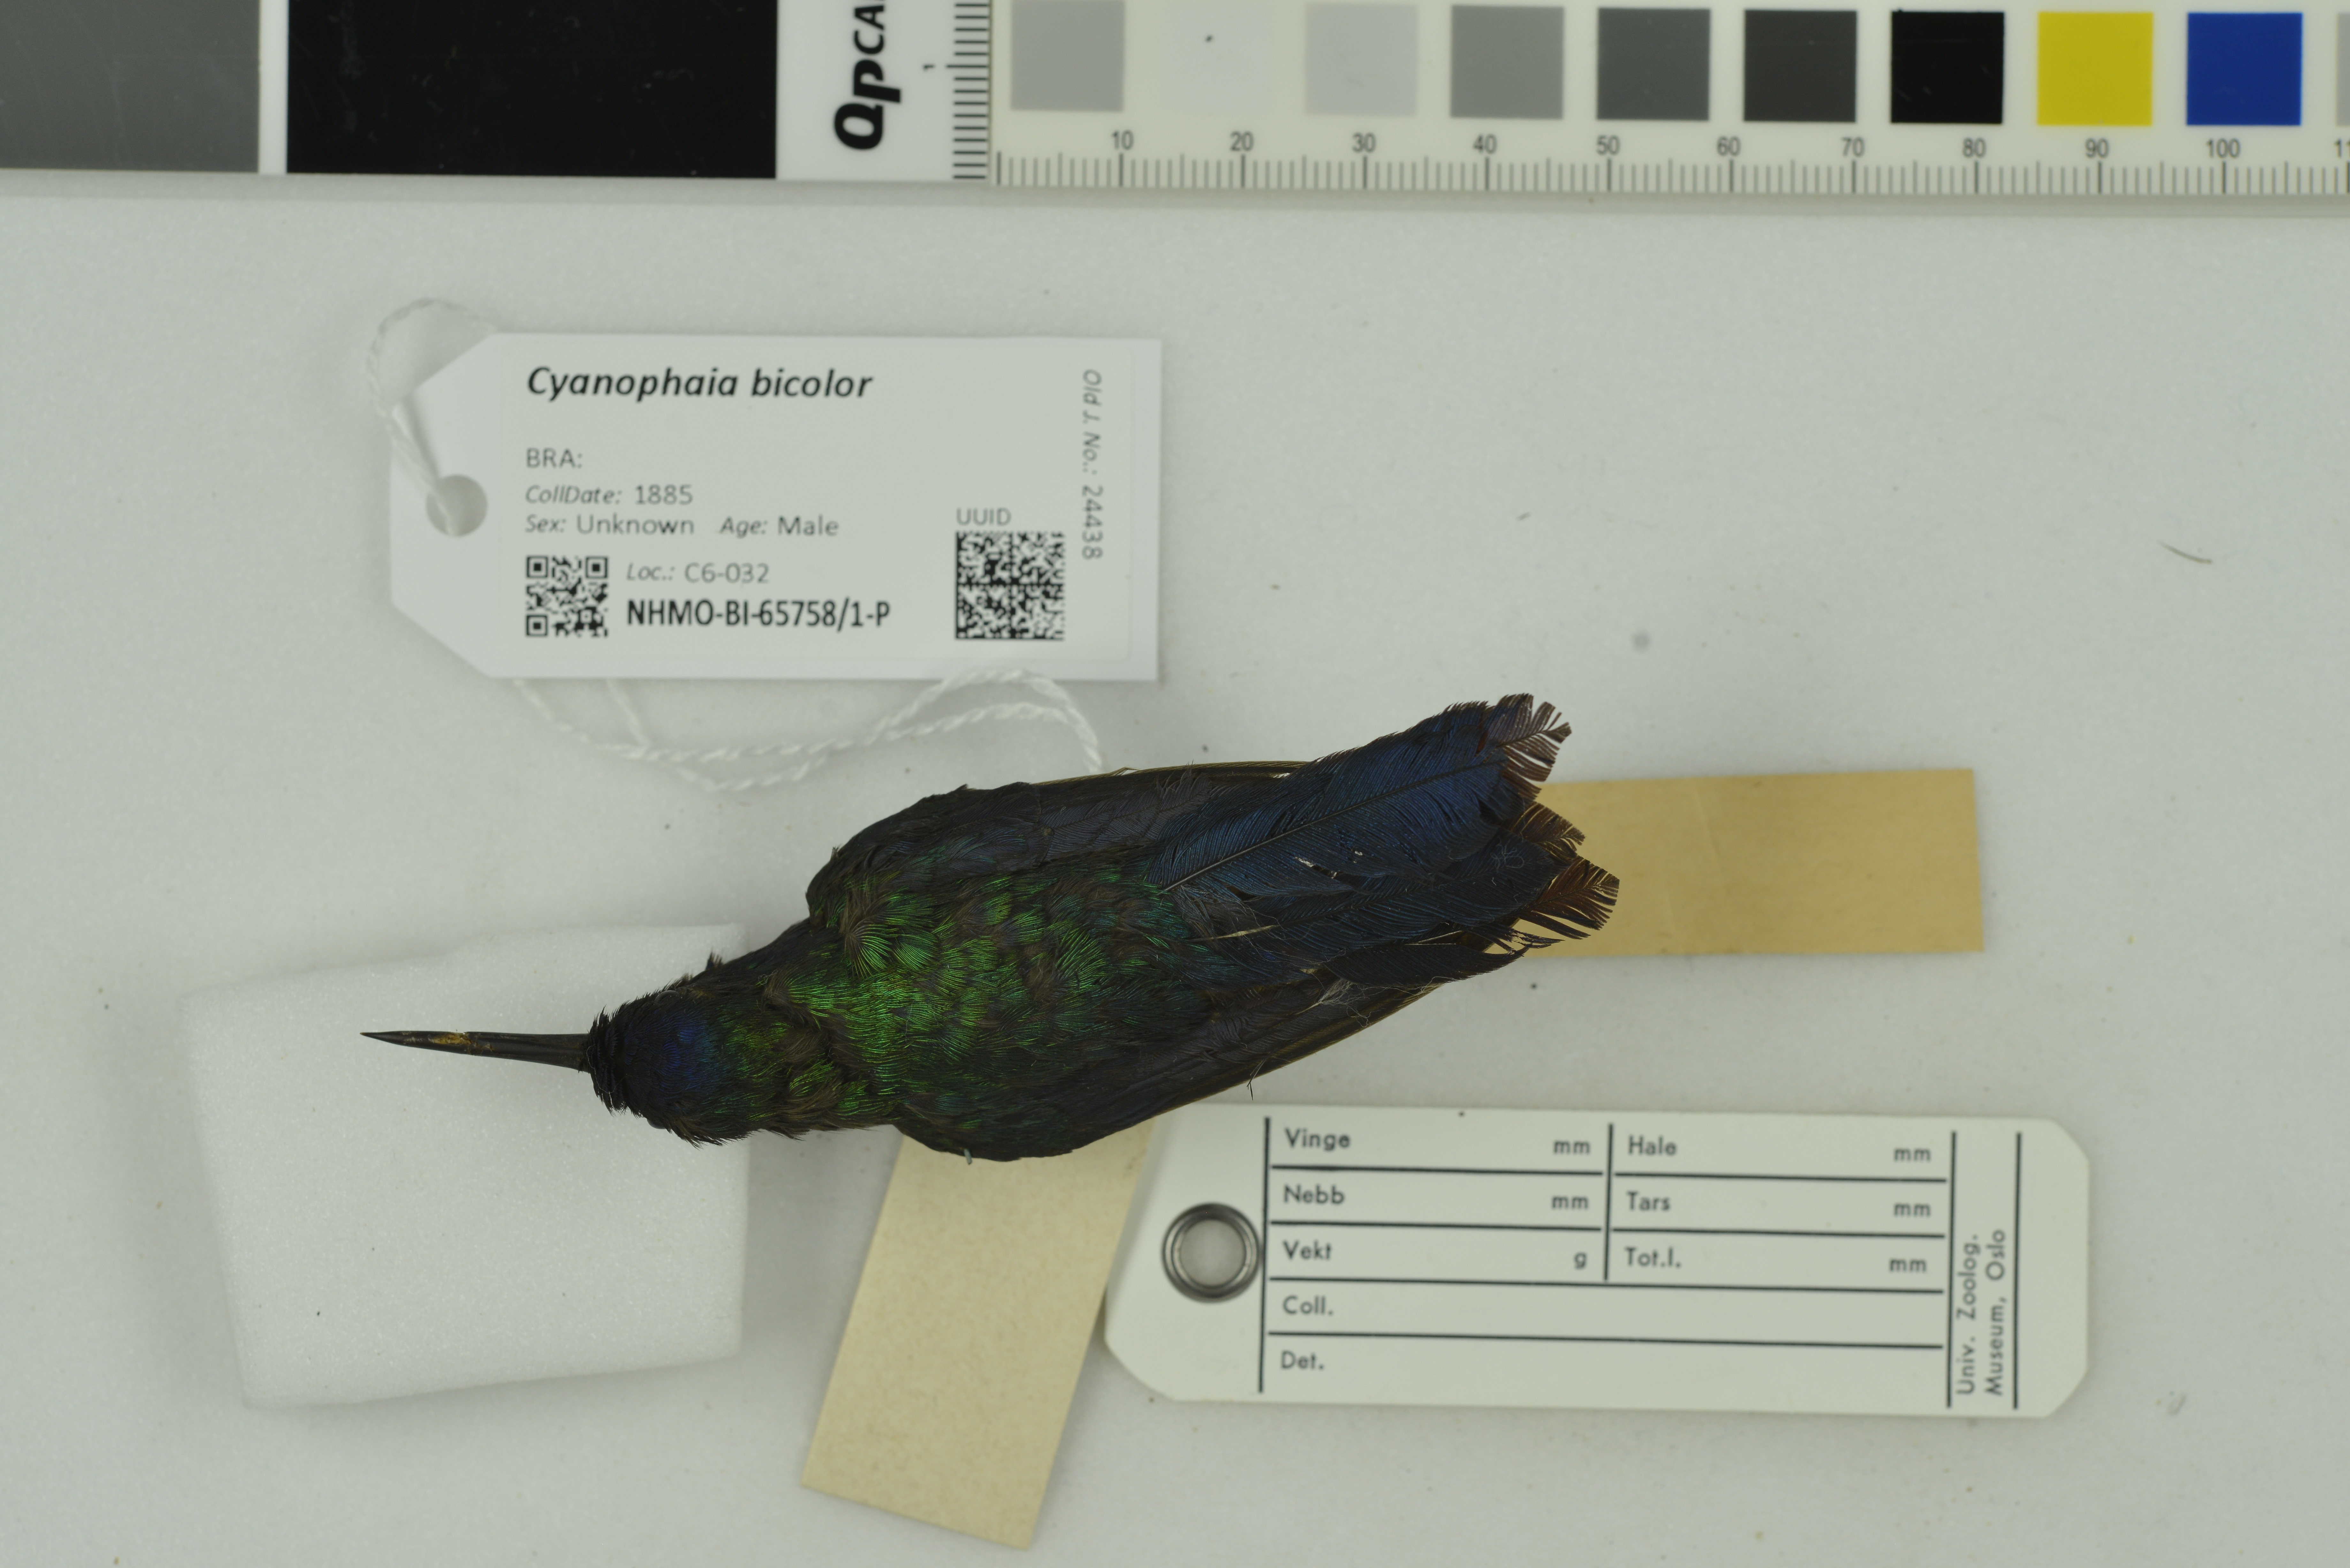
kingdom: Animalia
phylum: Chordata
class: Aves
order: Apodiformes
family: Trochilidae
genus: Riccordia
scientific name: Riccordia bicolor
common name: Blue-headed hummingbird
